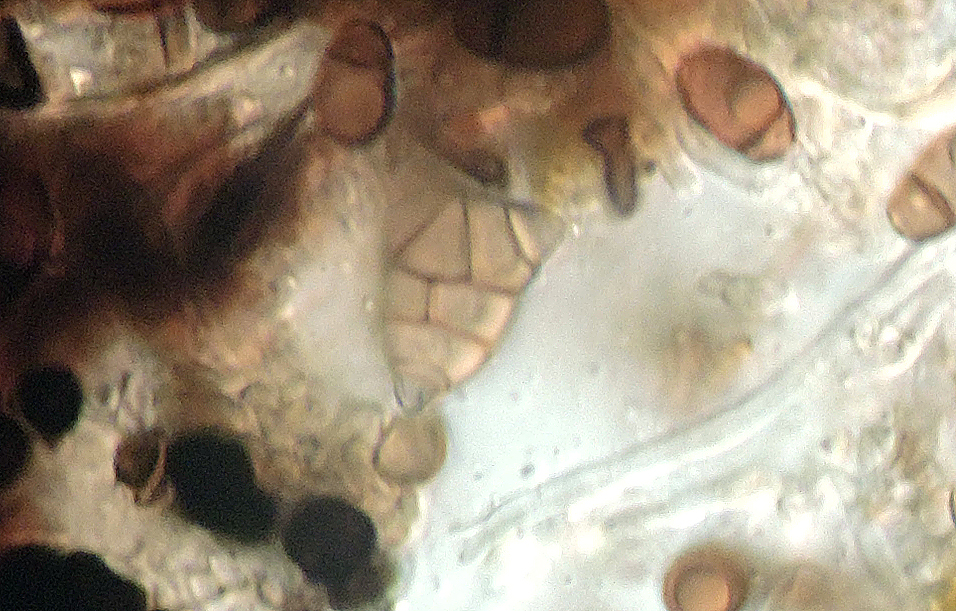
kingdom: Fungi
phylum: Ascomycota
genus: Oncopodiella
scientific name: Oncopodiella trigonella
